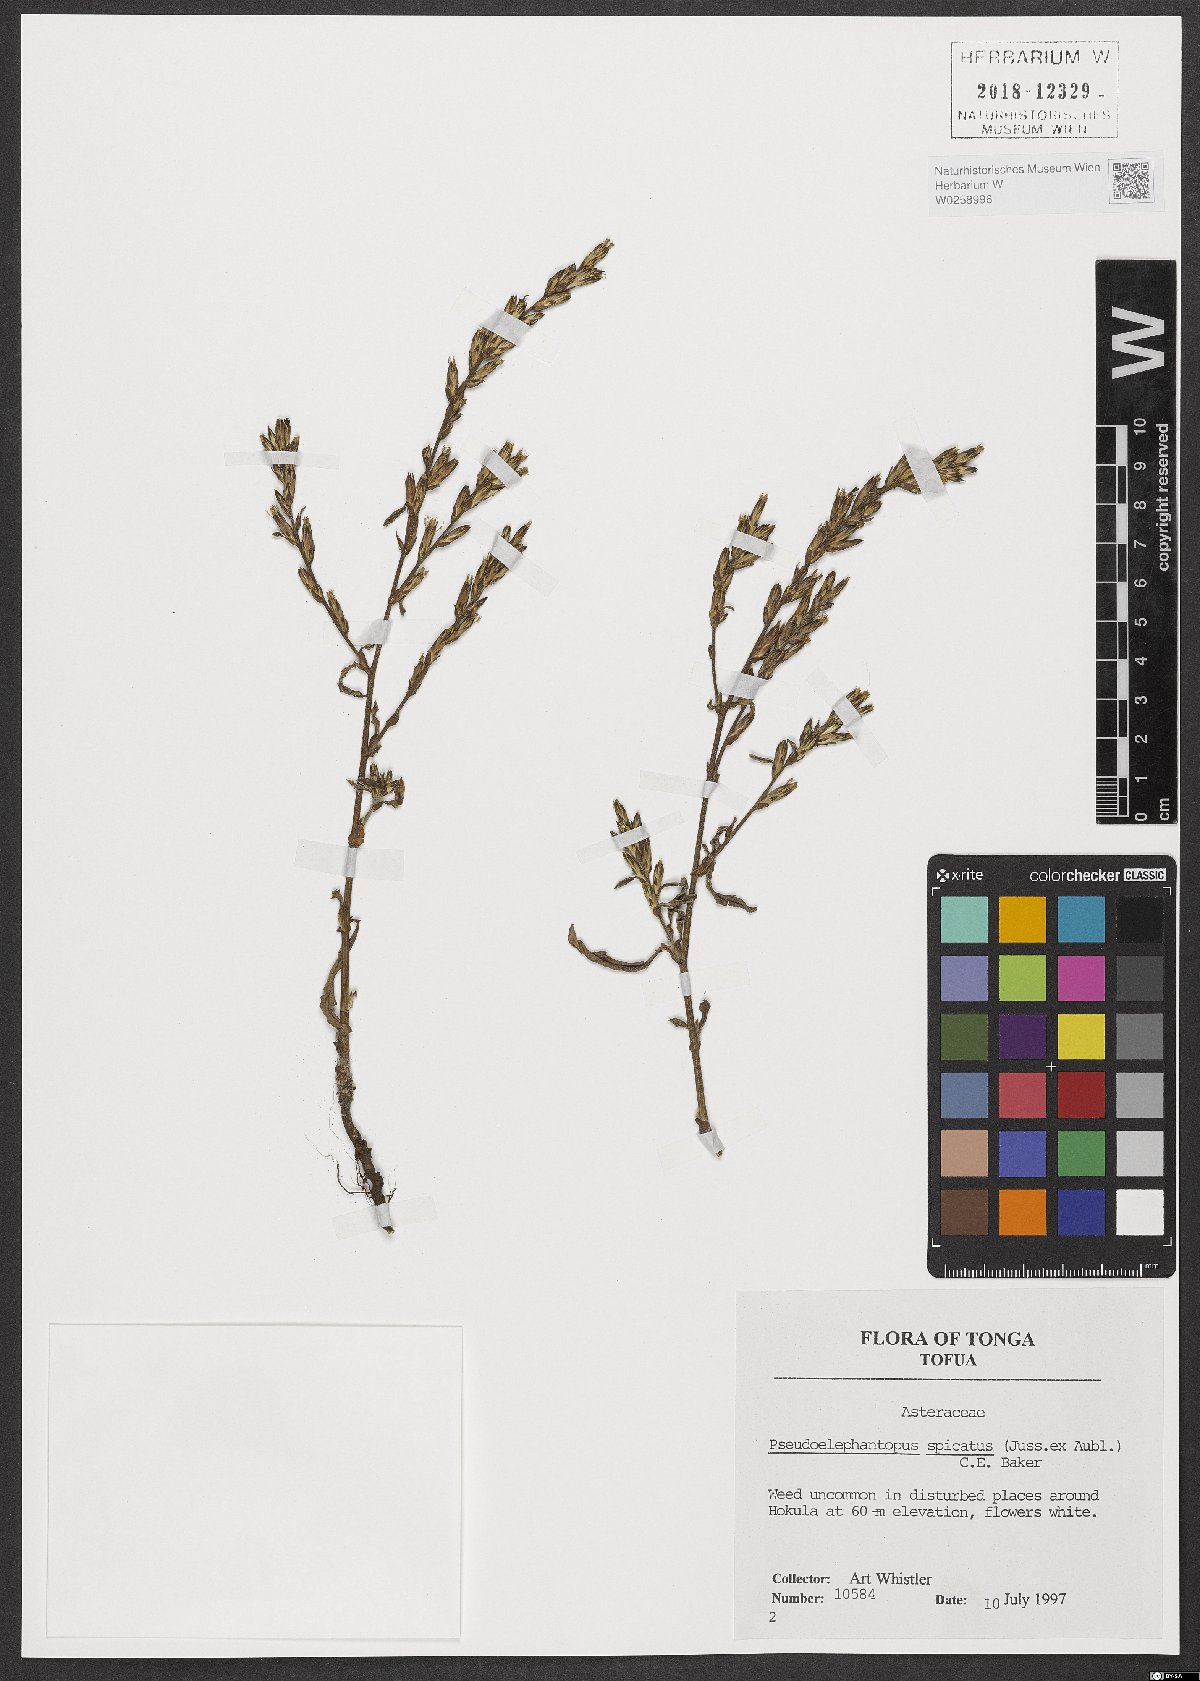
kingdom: Plantae
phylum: Tracheophyta
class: Magnoliopsida
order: Asterales
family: Asteraceae
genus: Pseudelephantopus
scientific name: Pseudelephantopus spicatus
